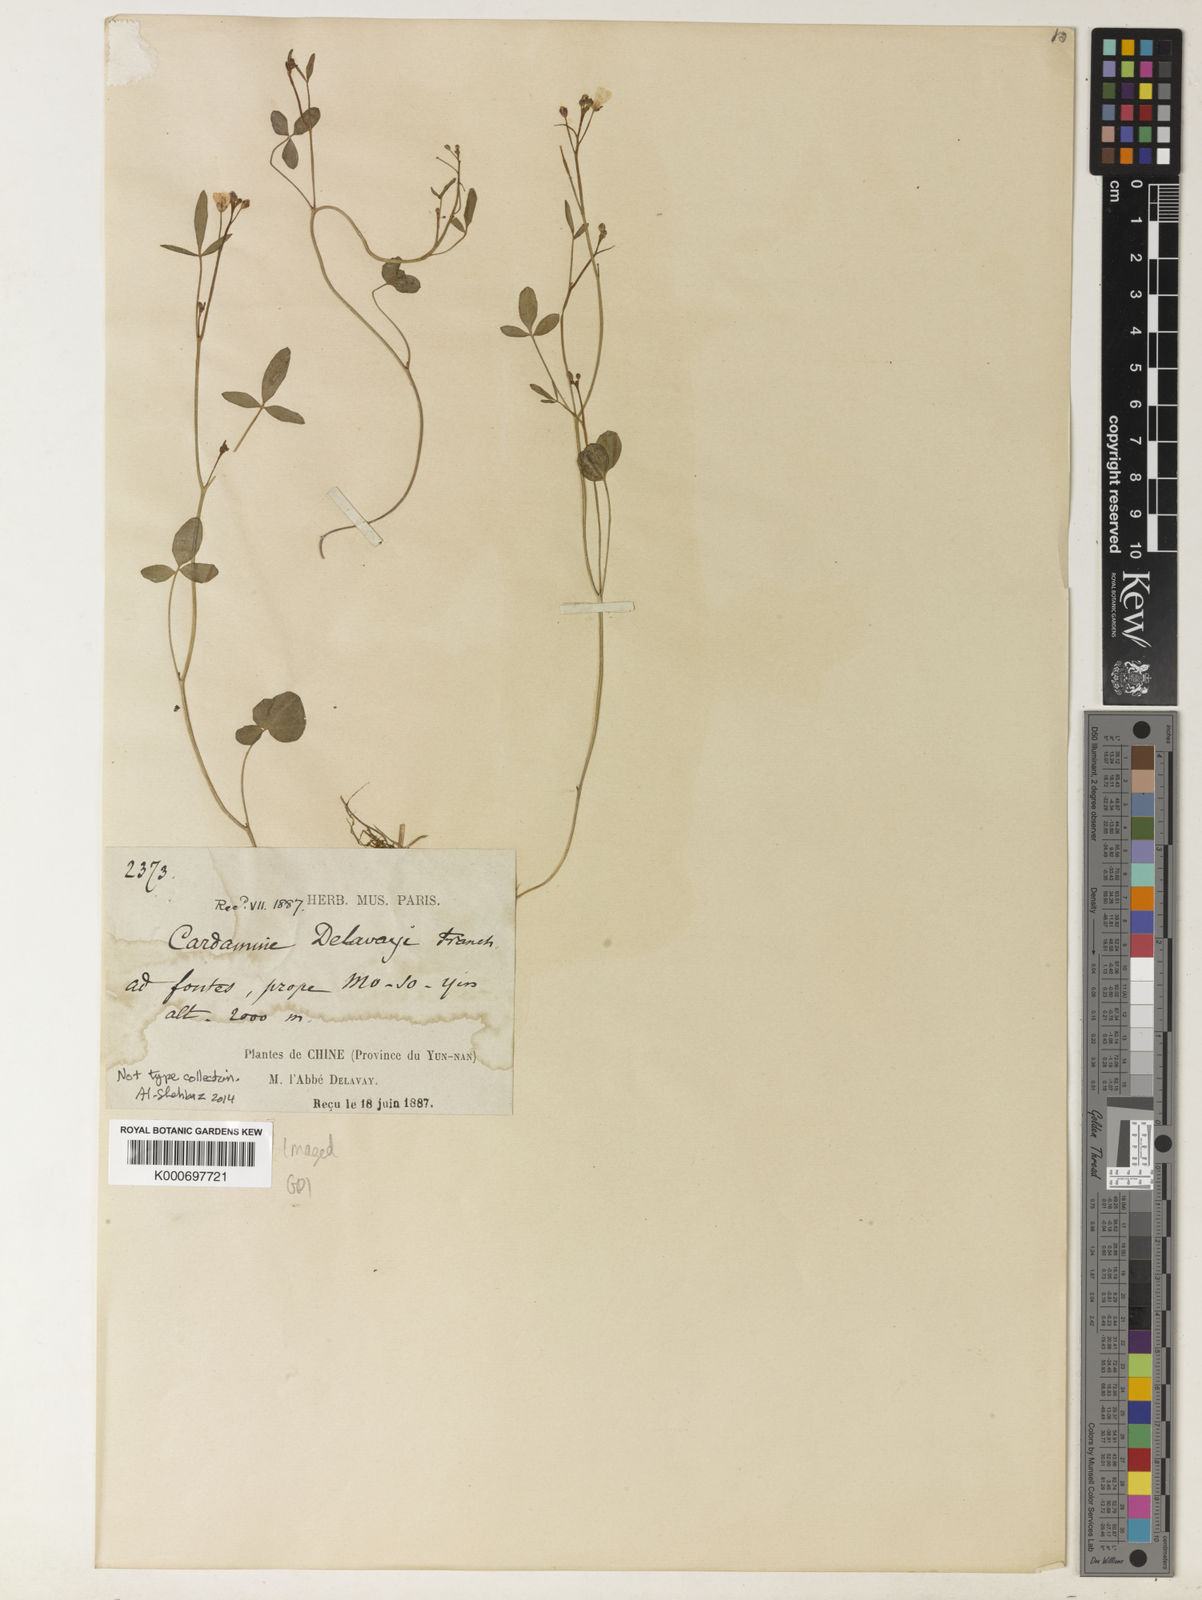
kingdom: Plantae
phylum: Tracheophyta
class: Magnoliopsida
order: Brassicales
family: Brassicaceae
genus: Cardamine
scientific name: Cardamine delavayi
